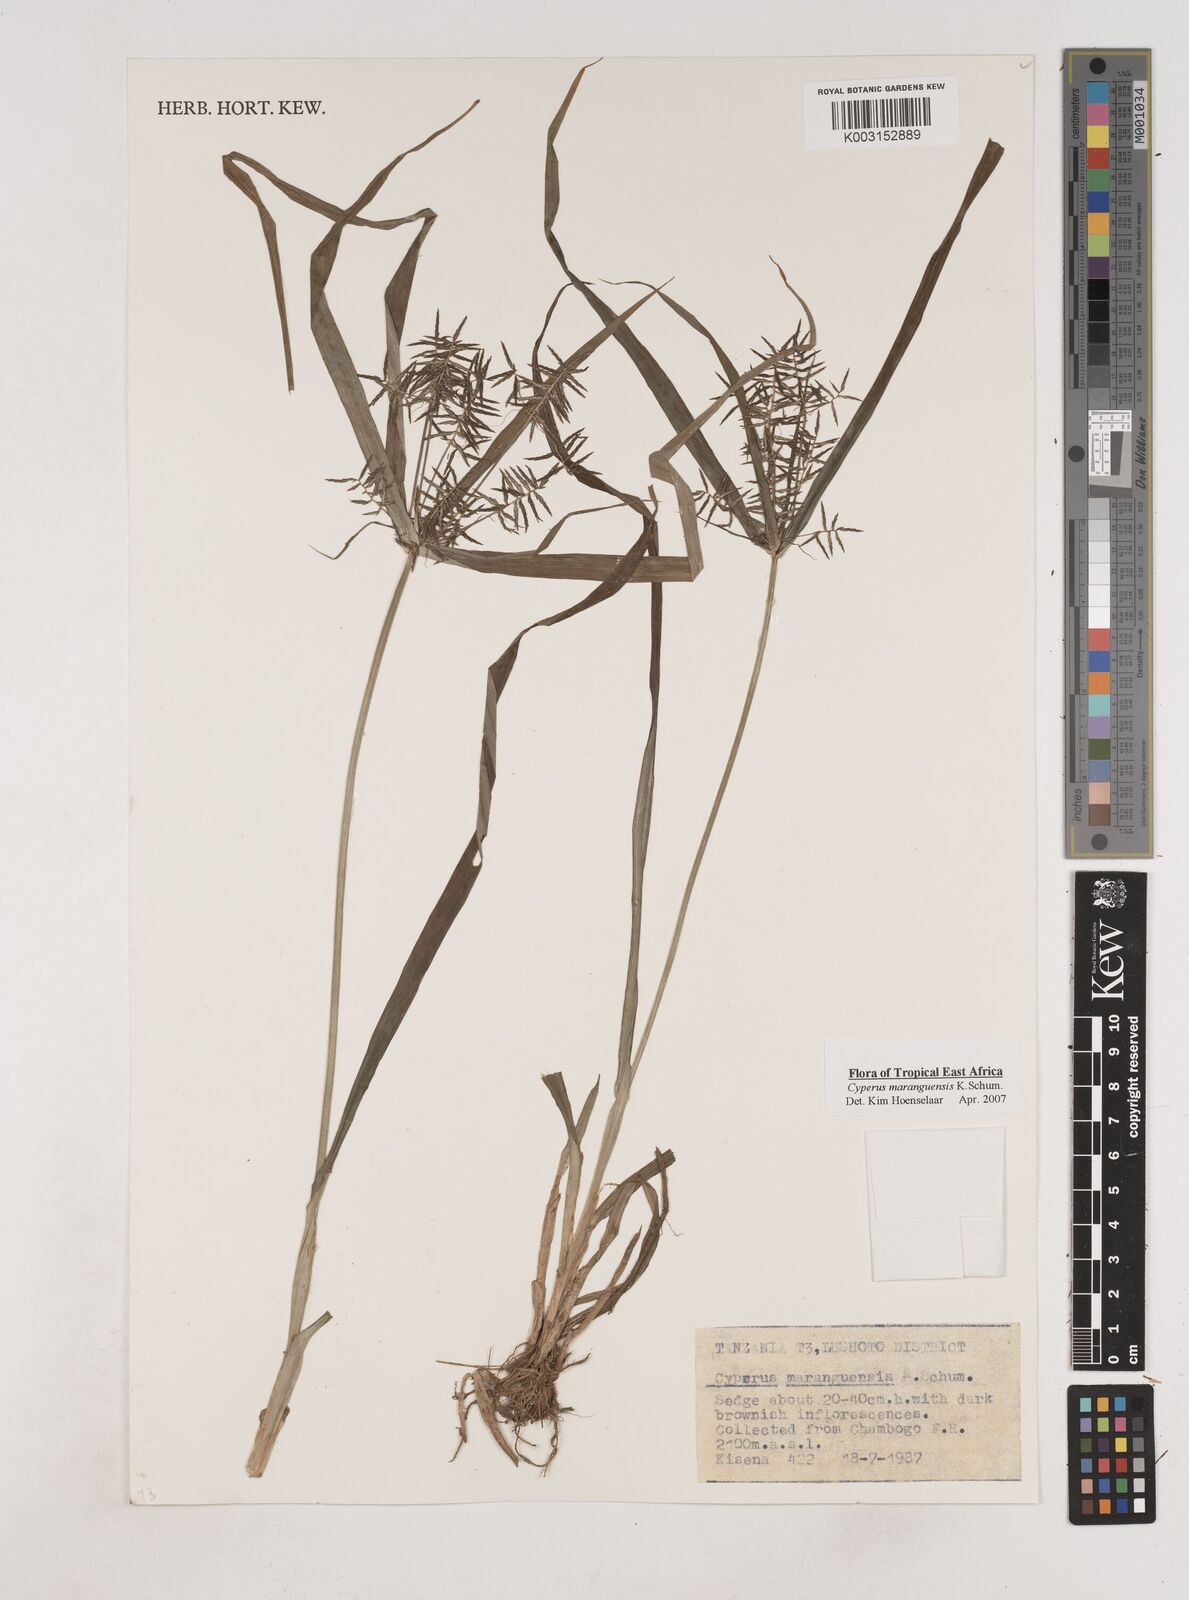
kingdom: Plantae
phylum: Tracheophyta
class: Liliopsida
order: Poales
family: Cyperaceae
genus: Cyperus
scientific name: Cyperus maranguensis
